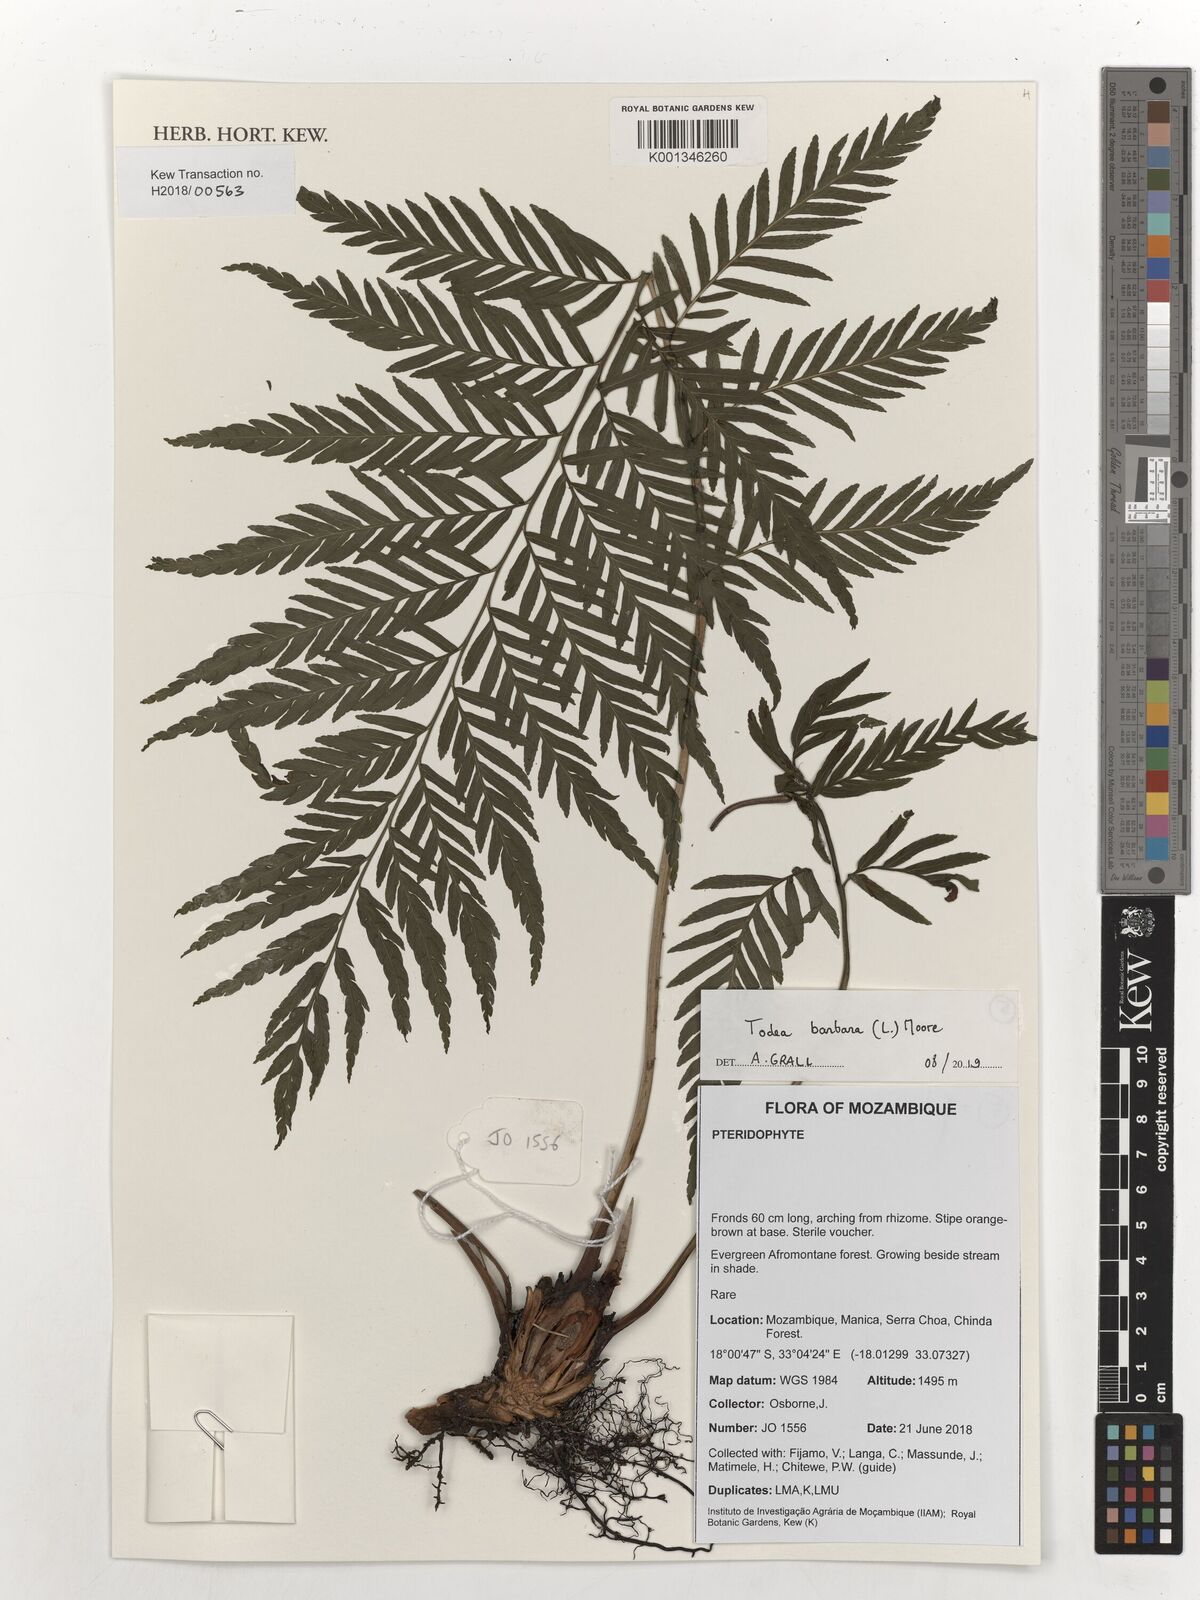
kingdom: Plantae
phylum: Tracheophyta
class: Polypodiopsida
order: Osmundales
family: Osmundaceae
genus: Todea
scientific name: Todea barbara
